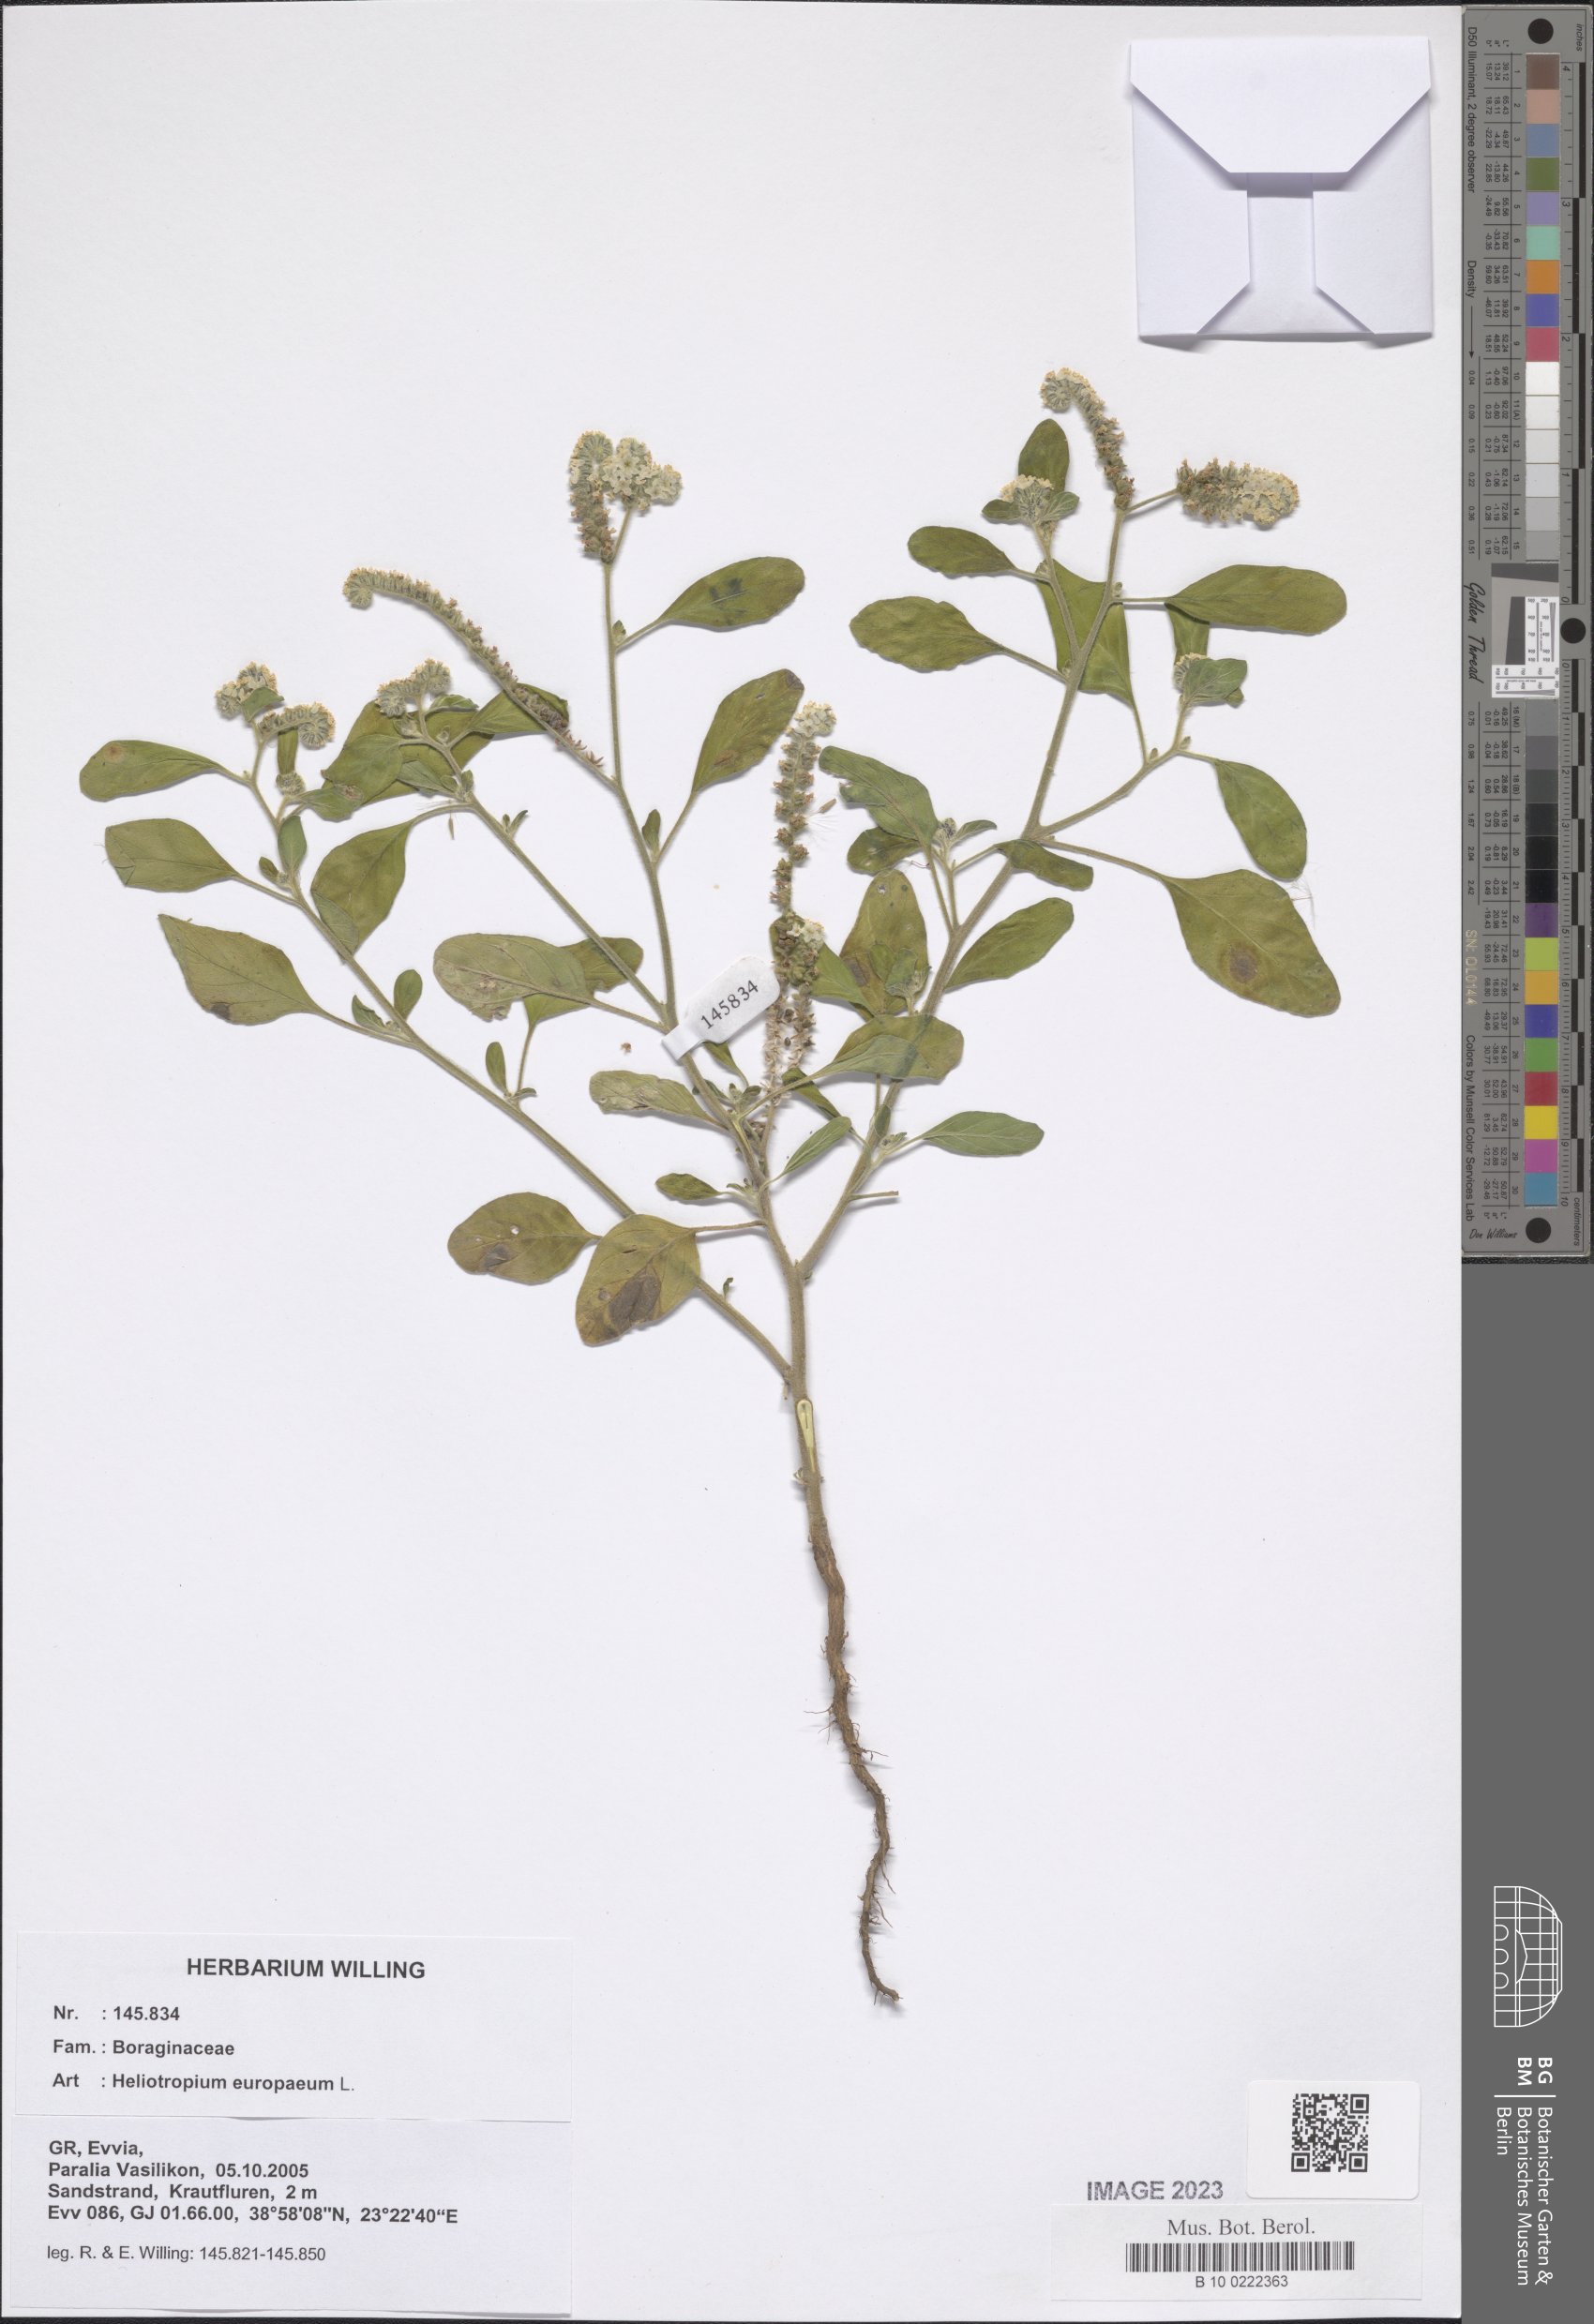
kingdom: Plantae
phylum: Tracheophyta
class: Magnoliopsida
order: Boraginales
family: Heliotropiaceae
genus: Heliotropium
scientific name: Heliotropium europaeum
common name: European heliotrope
